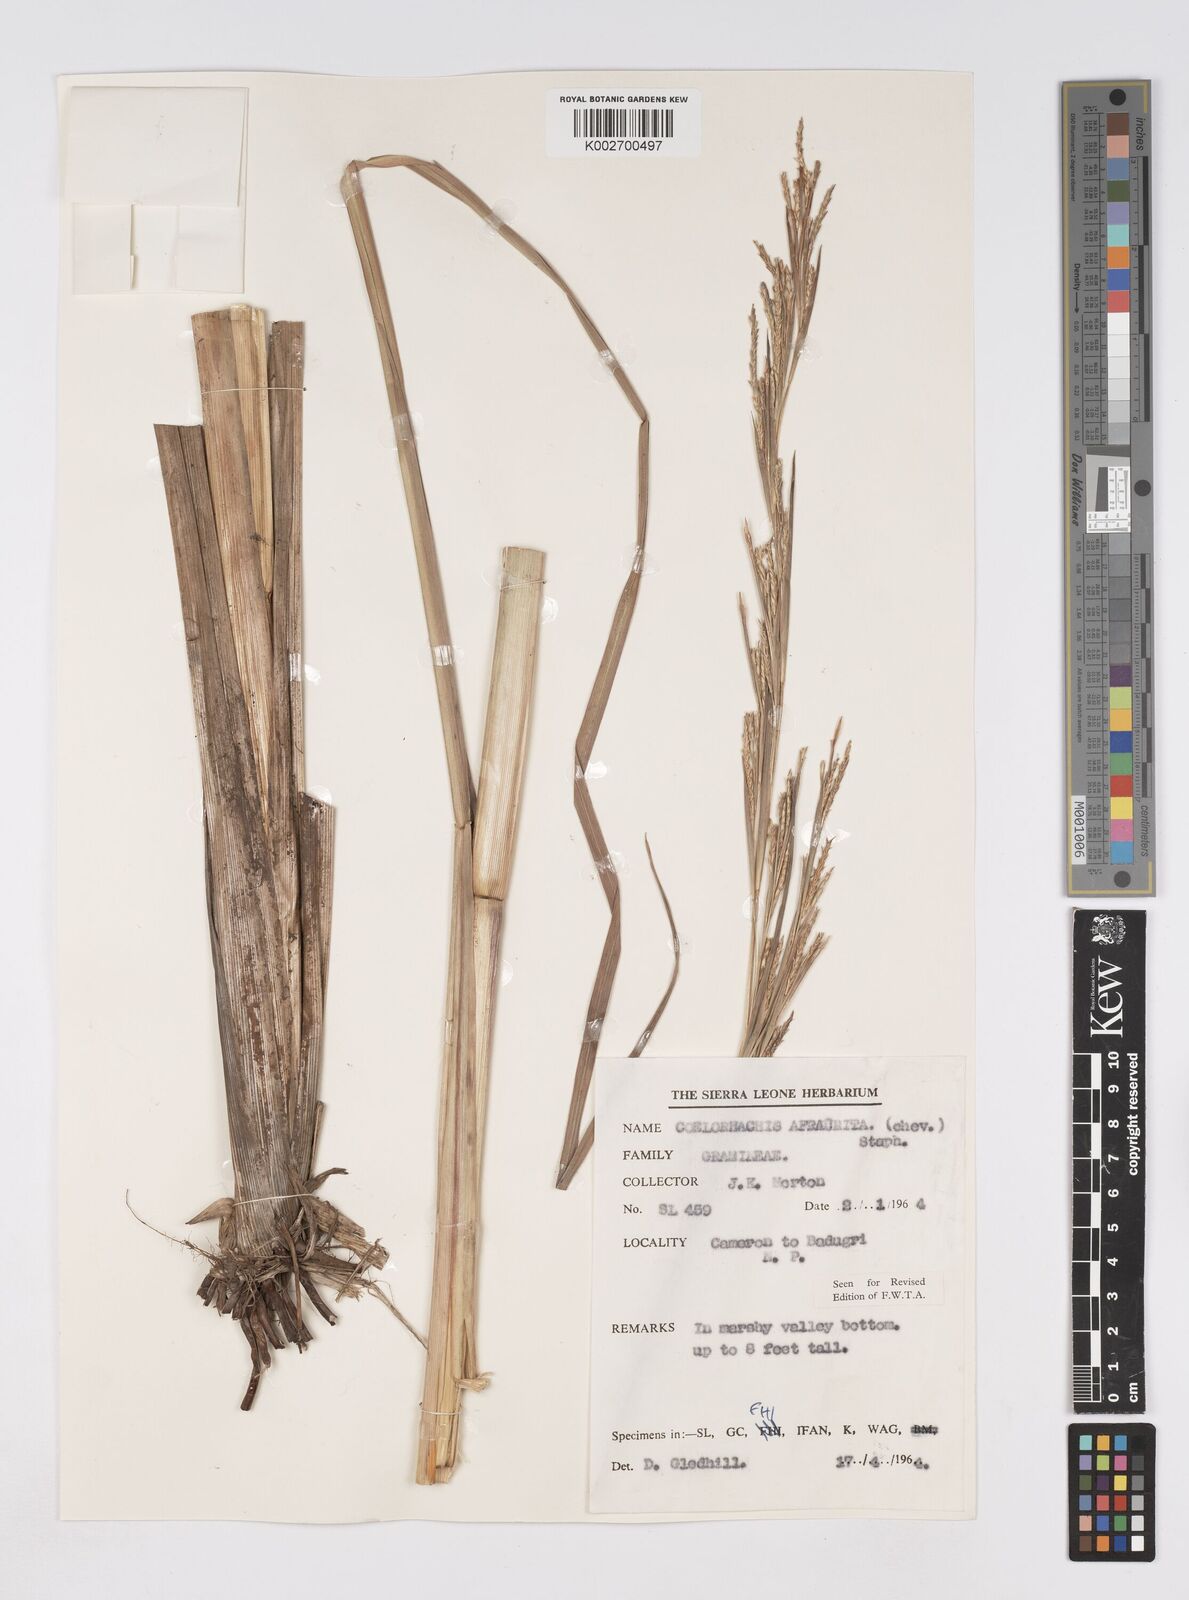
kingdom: Plantae
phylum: Tracheophyta
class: Liliopsida
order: Poales
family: Poaceae
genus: Rottboellia
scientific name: Rottboellia afraurita
